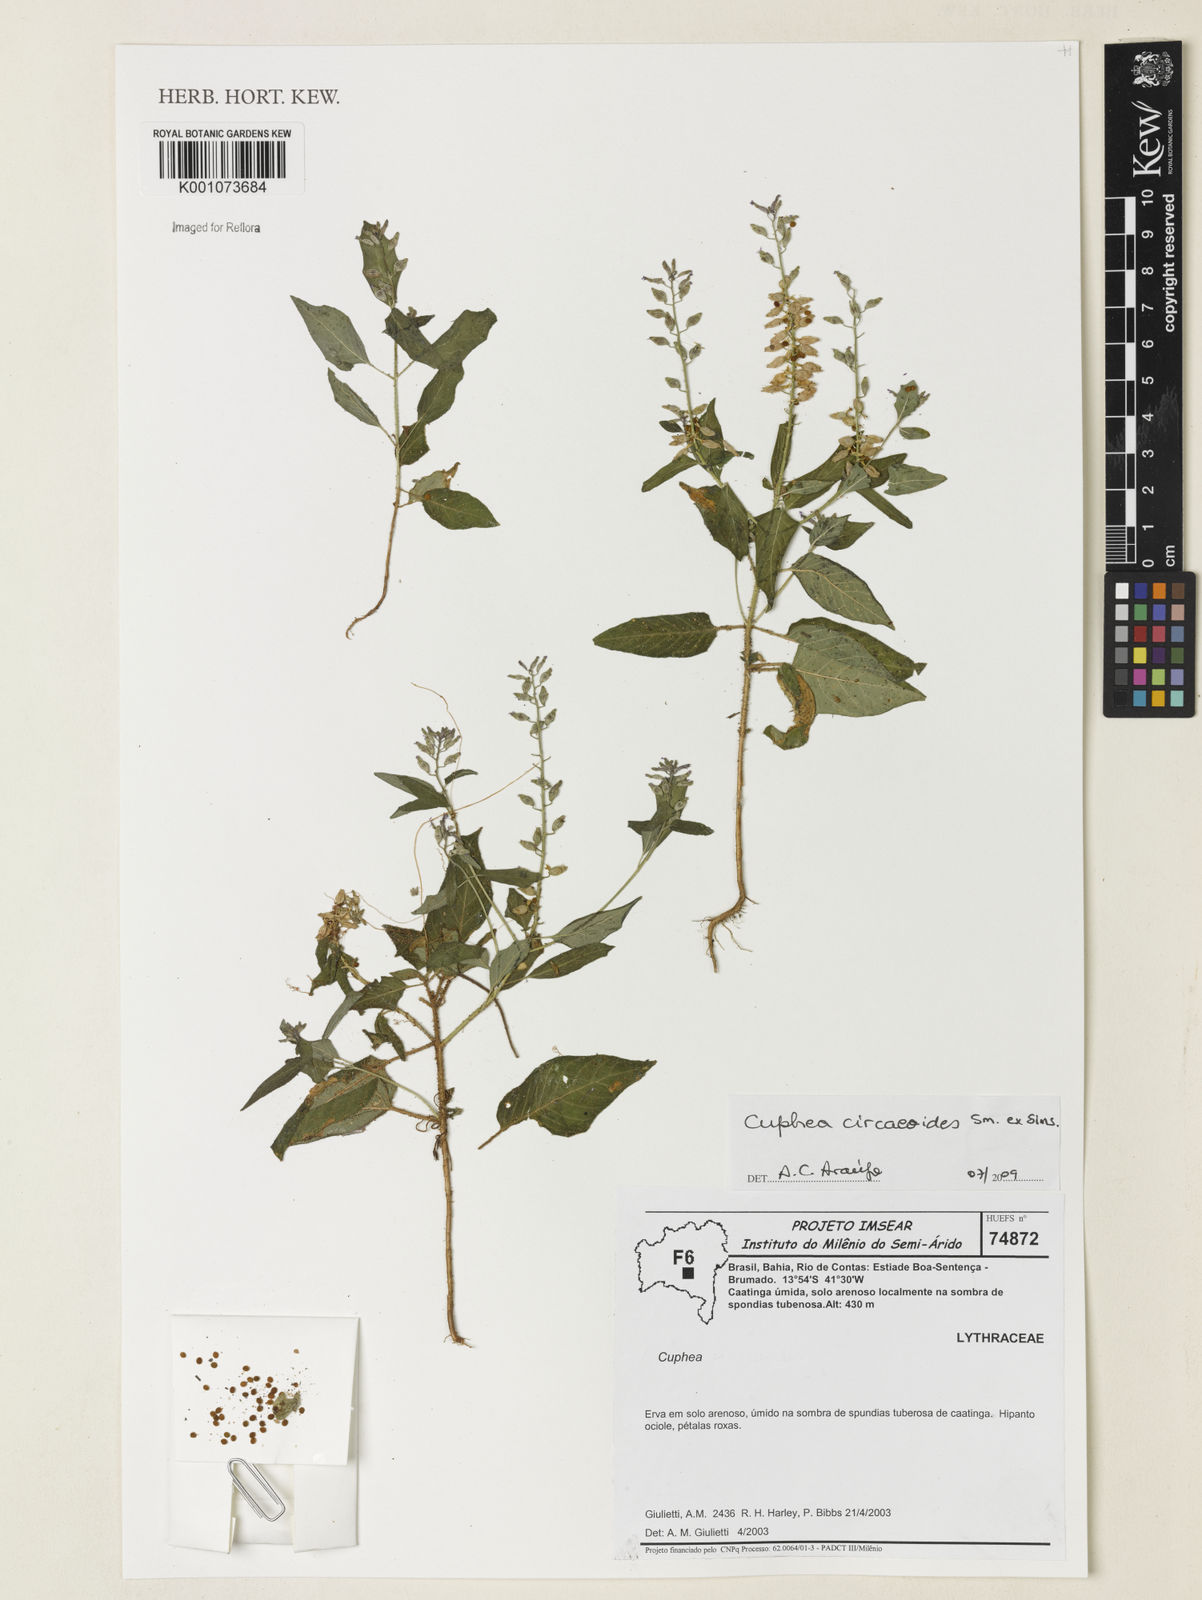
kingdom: Plantae
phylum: Tracheophyta
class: Magnoliopsida
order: Myrtales
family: Lythraceae
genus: Cuphea
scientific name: Cuphea circaeoides
